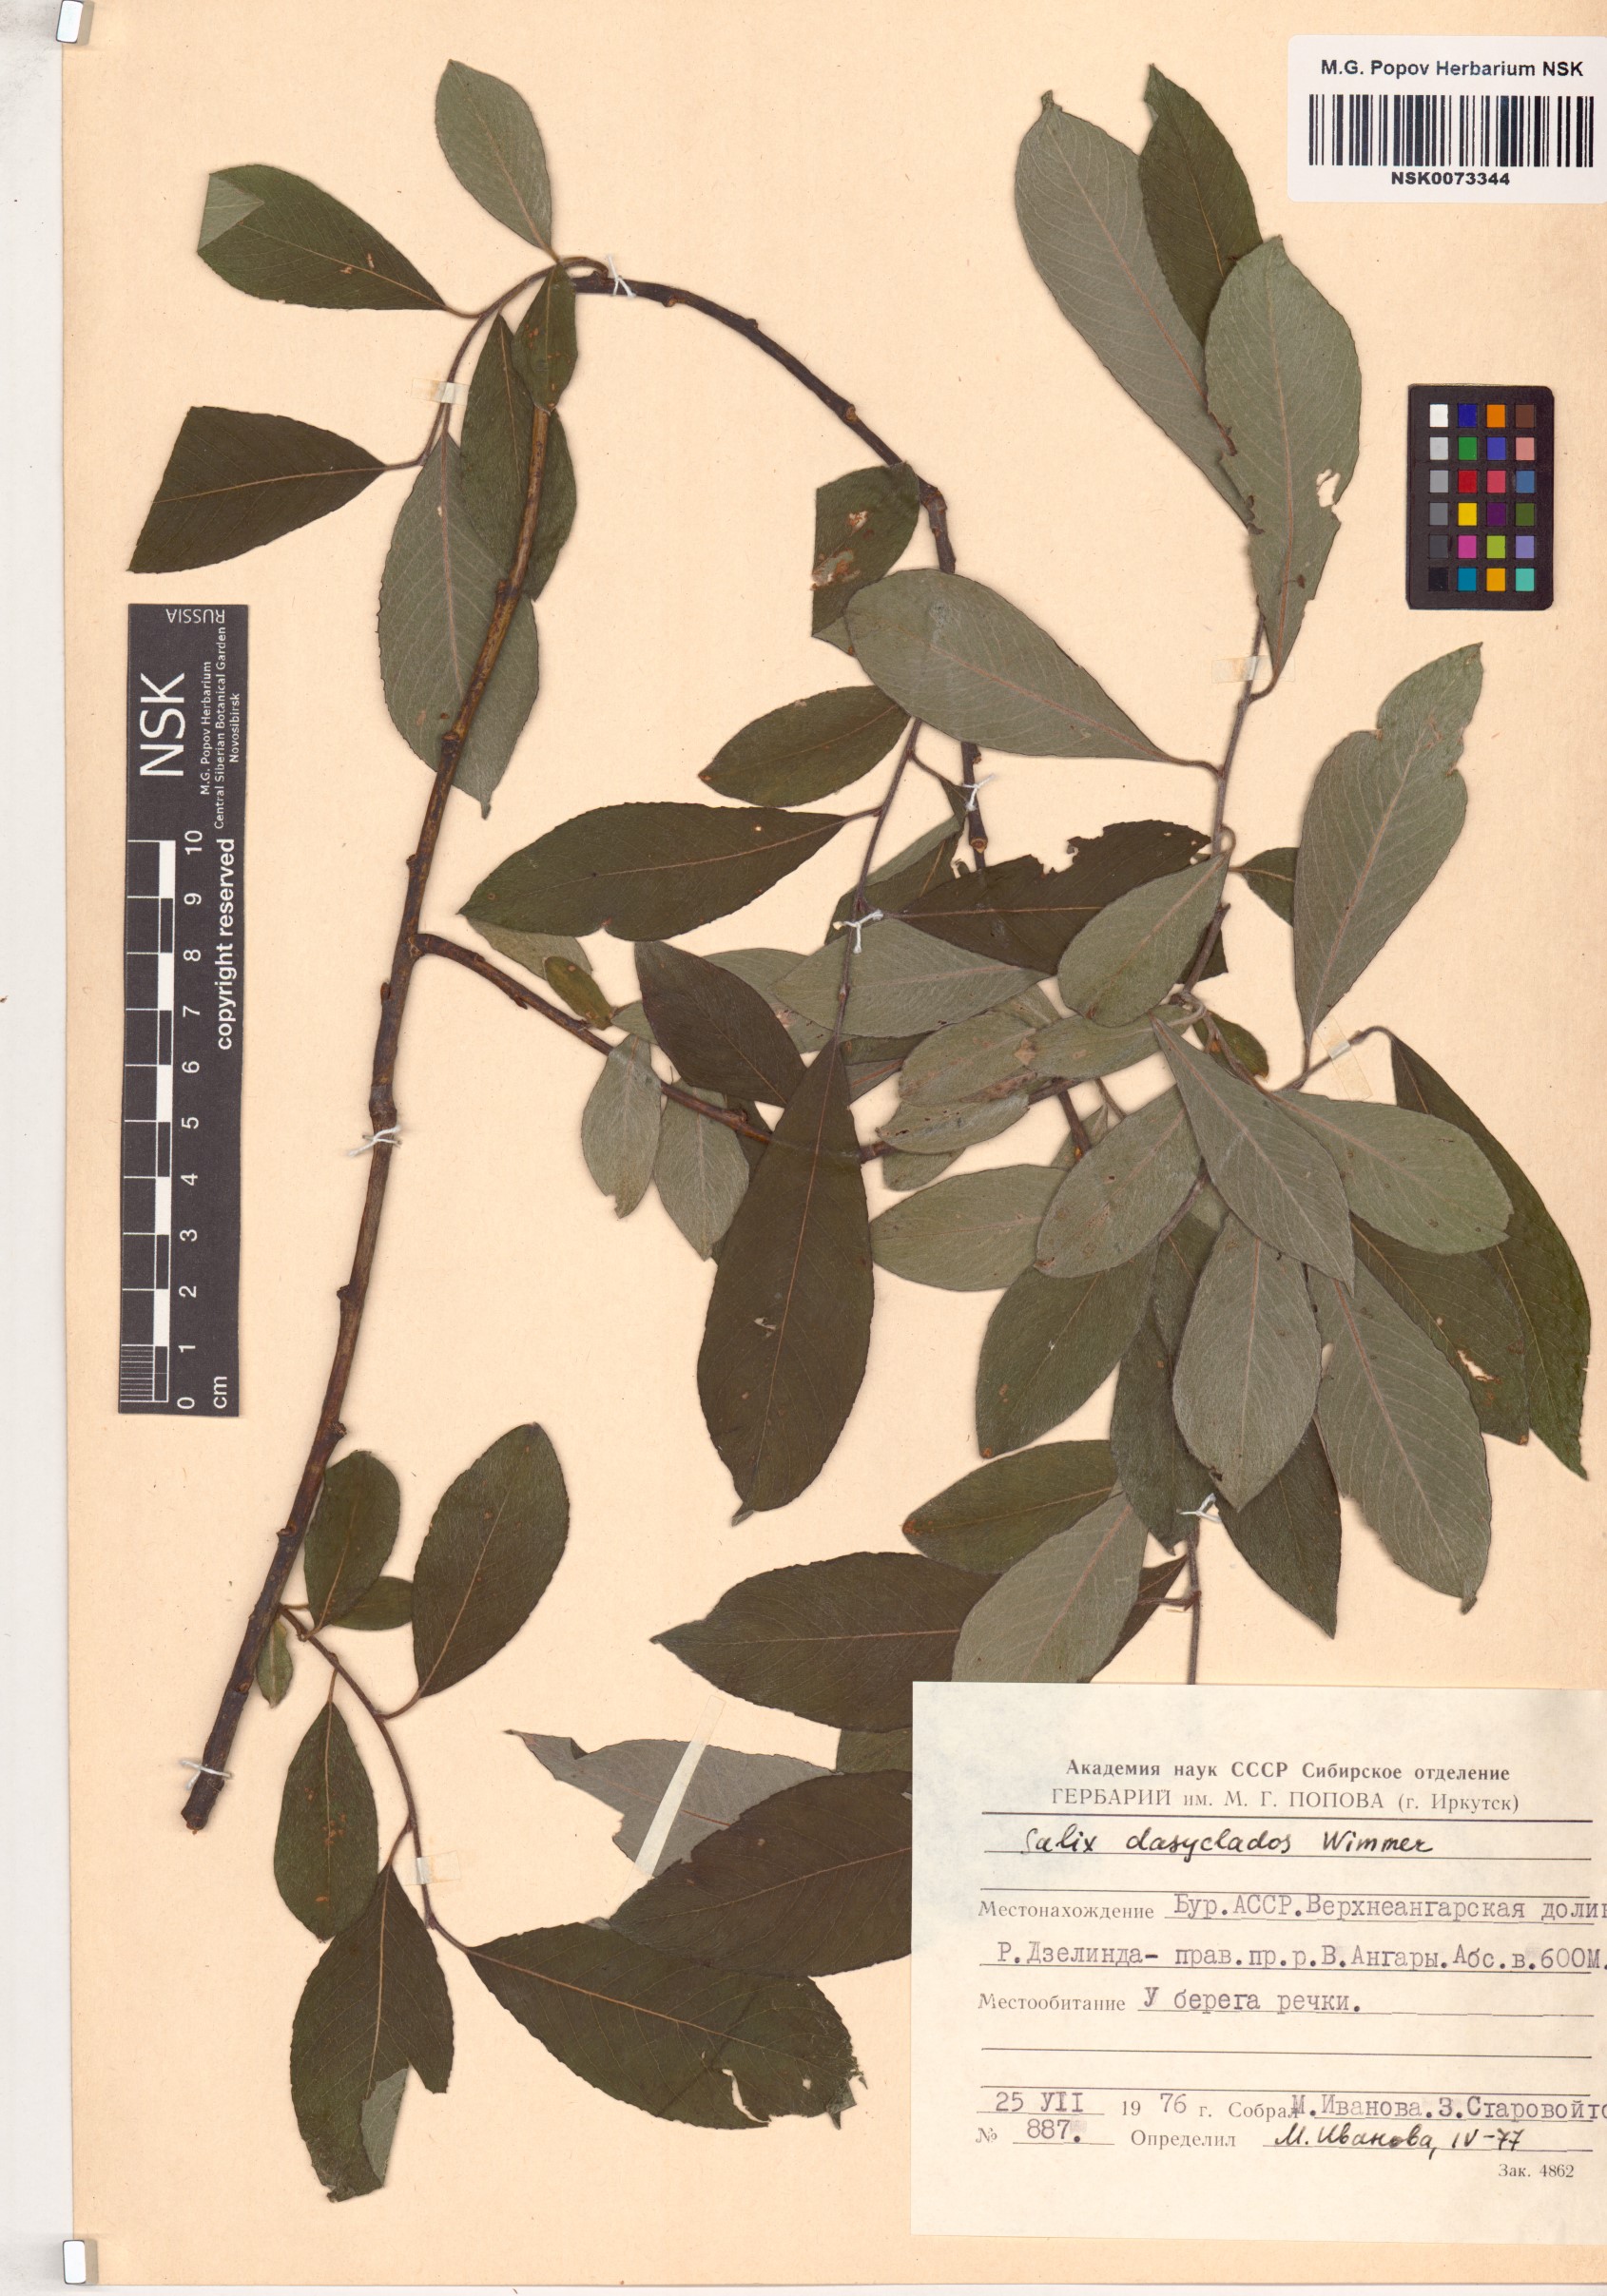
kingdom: Plantae
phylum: Tracheophyta
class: Magnoliopsida
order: Malpighiales
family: Salicaceae
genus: Salix
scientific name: Salix gmelinii
